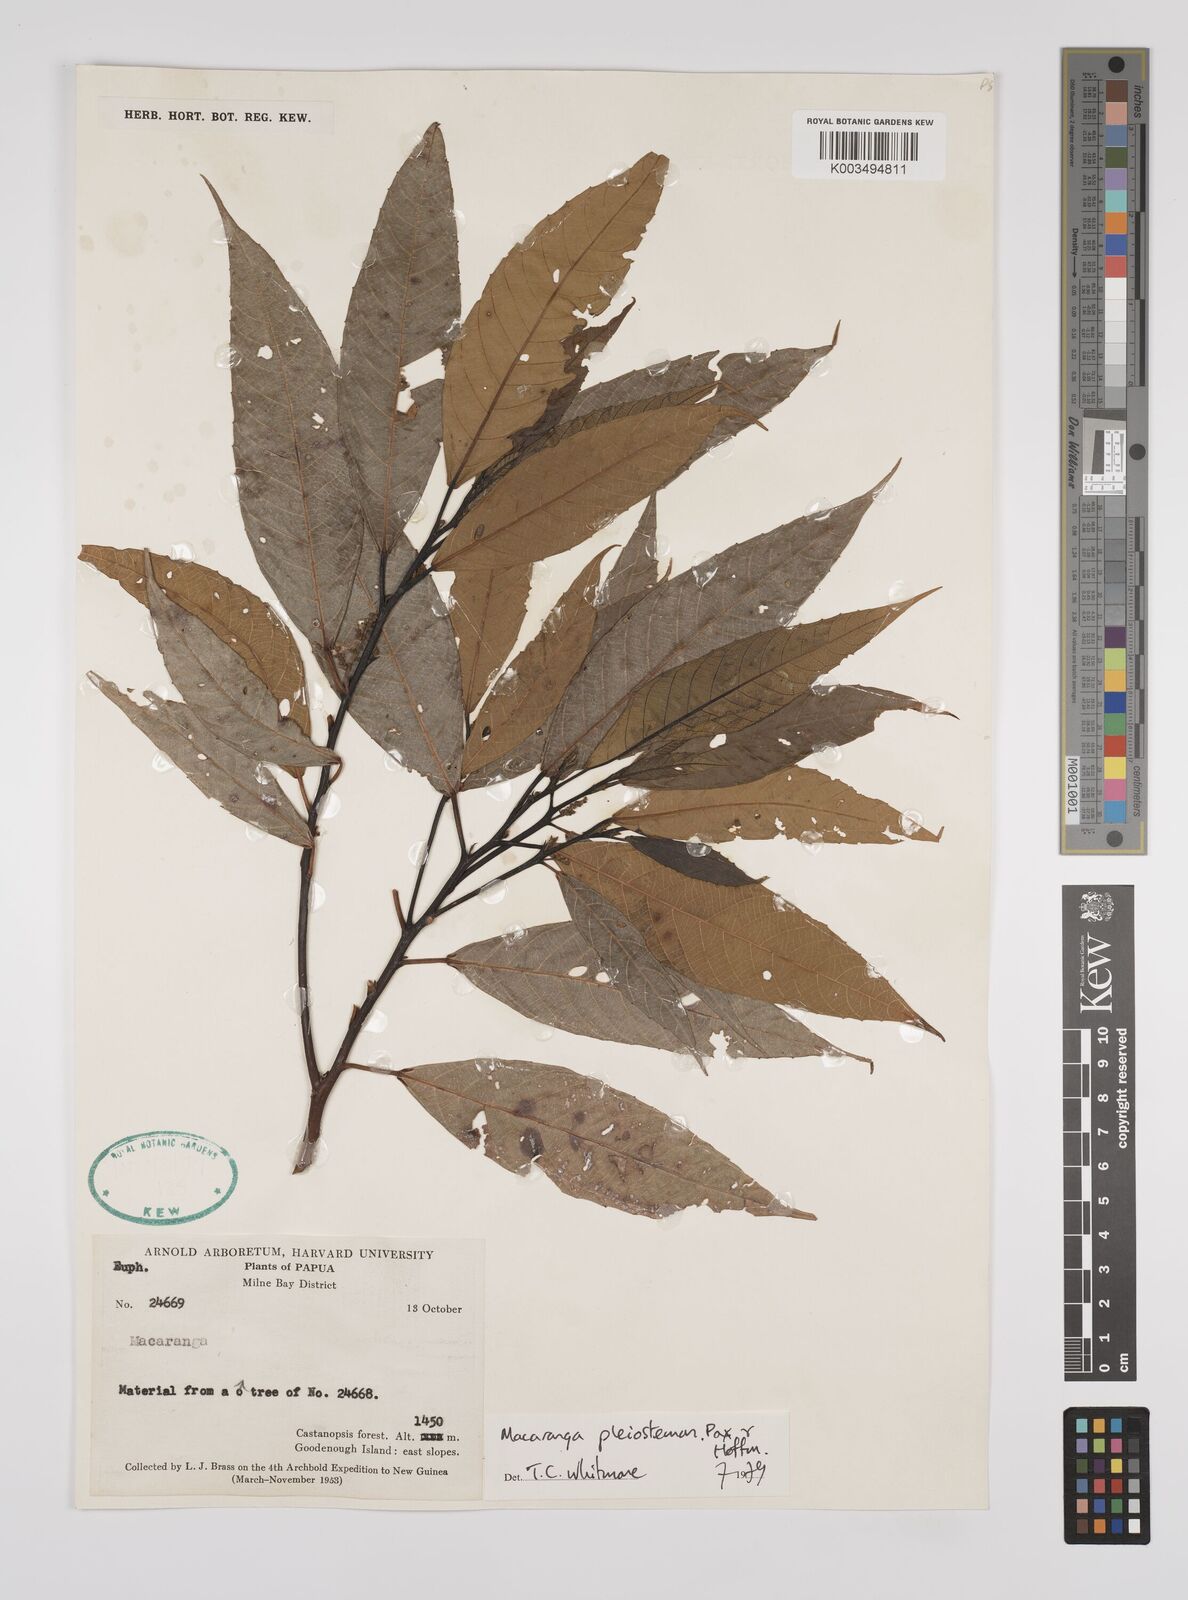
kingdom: Plantae
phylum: Tracheophyta
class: Magnoliopsida
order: Malpighiales
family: Euphorbiaceae
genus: Macaranga
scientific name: Macaranga pleiostemon
